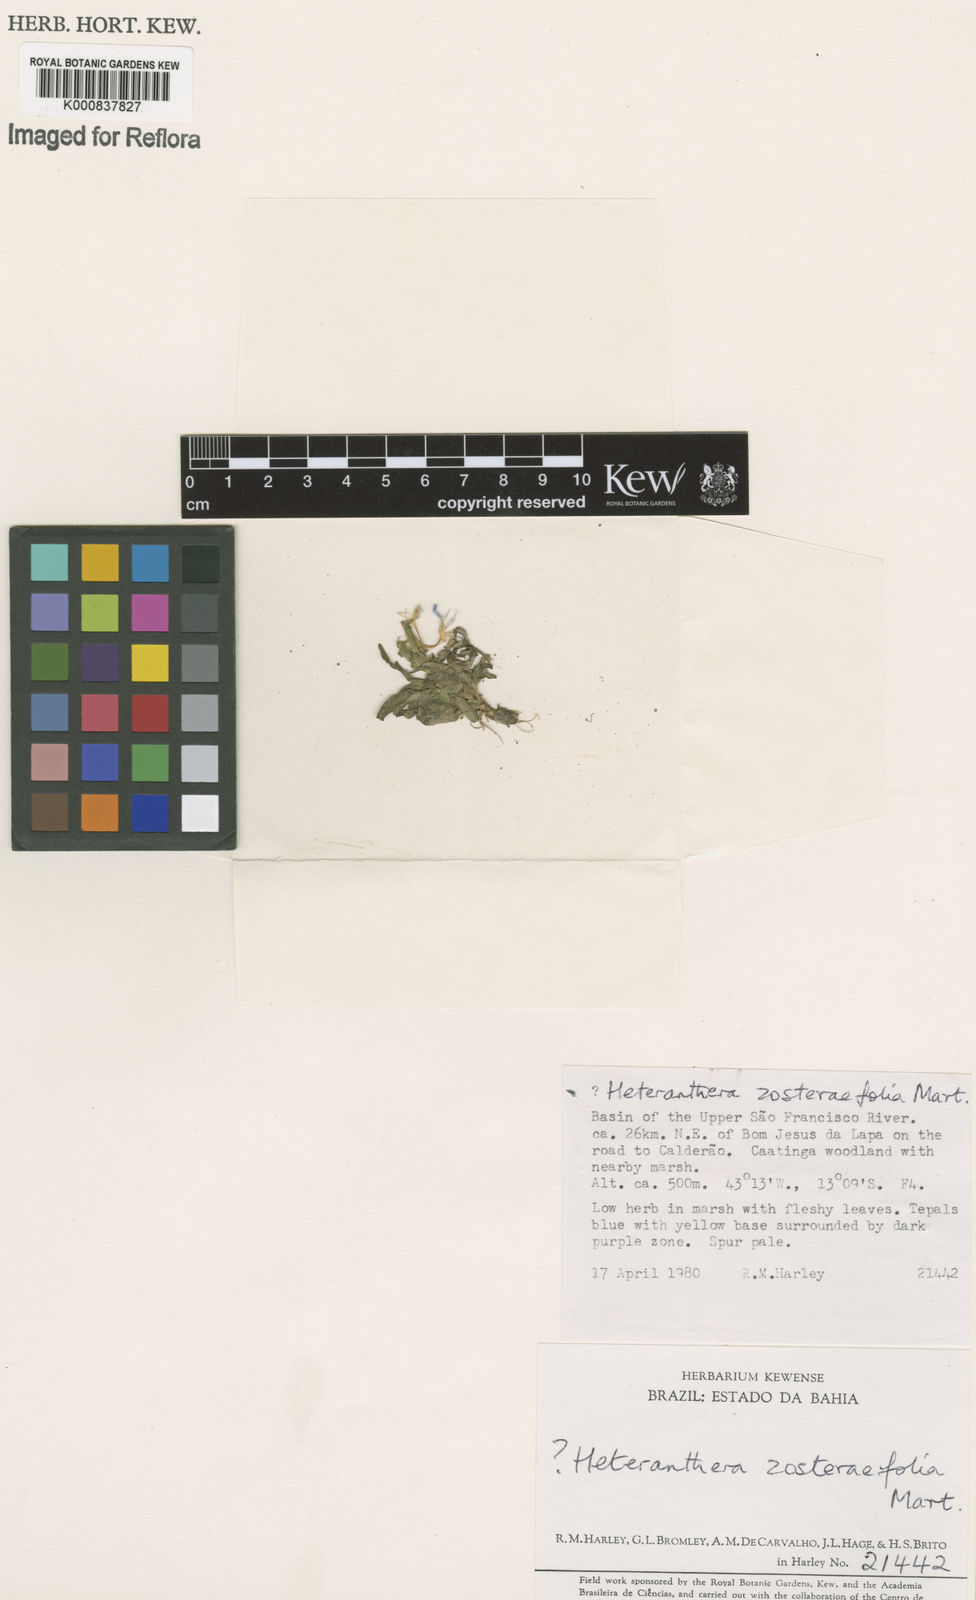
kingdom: Plantae
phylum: Tracheophyta
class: Liliopsida
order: Commelinales
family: Pontederiaceae
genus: Heteranthera
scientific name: Heteranthera zosterifolia
